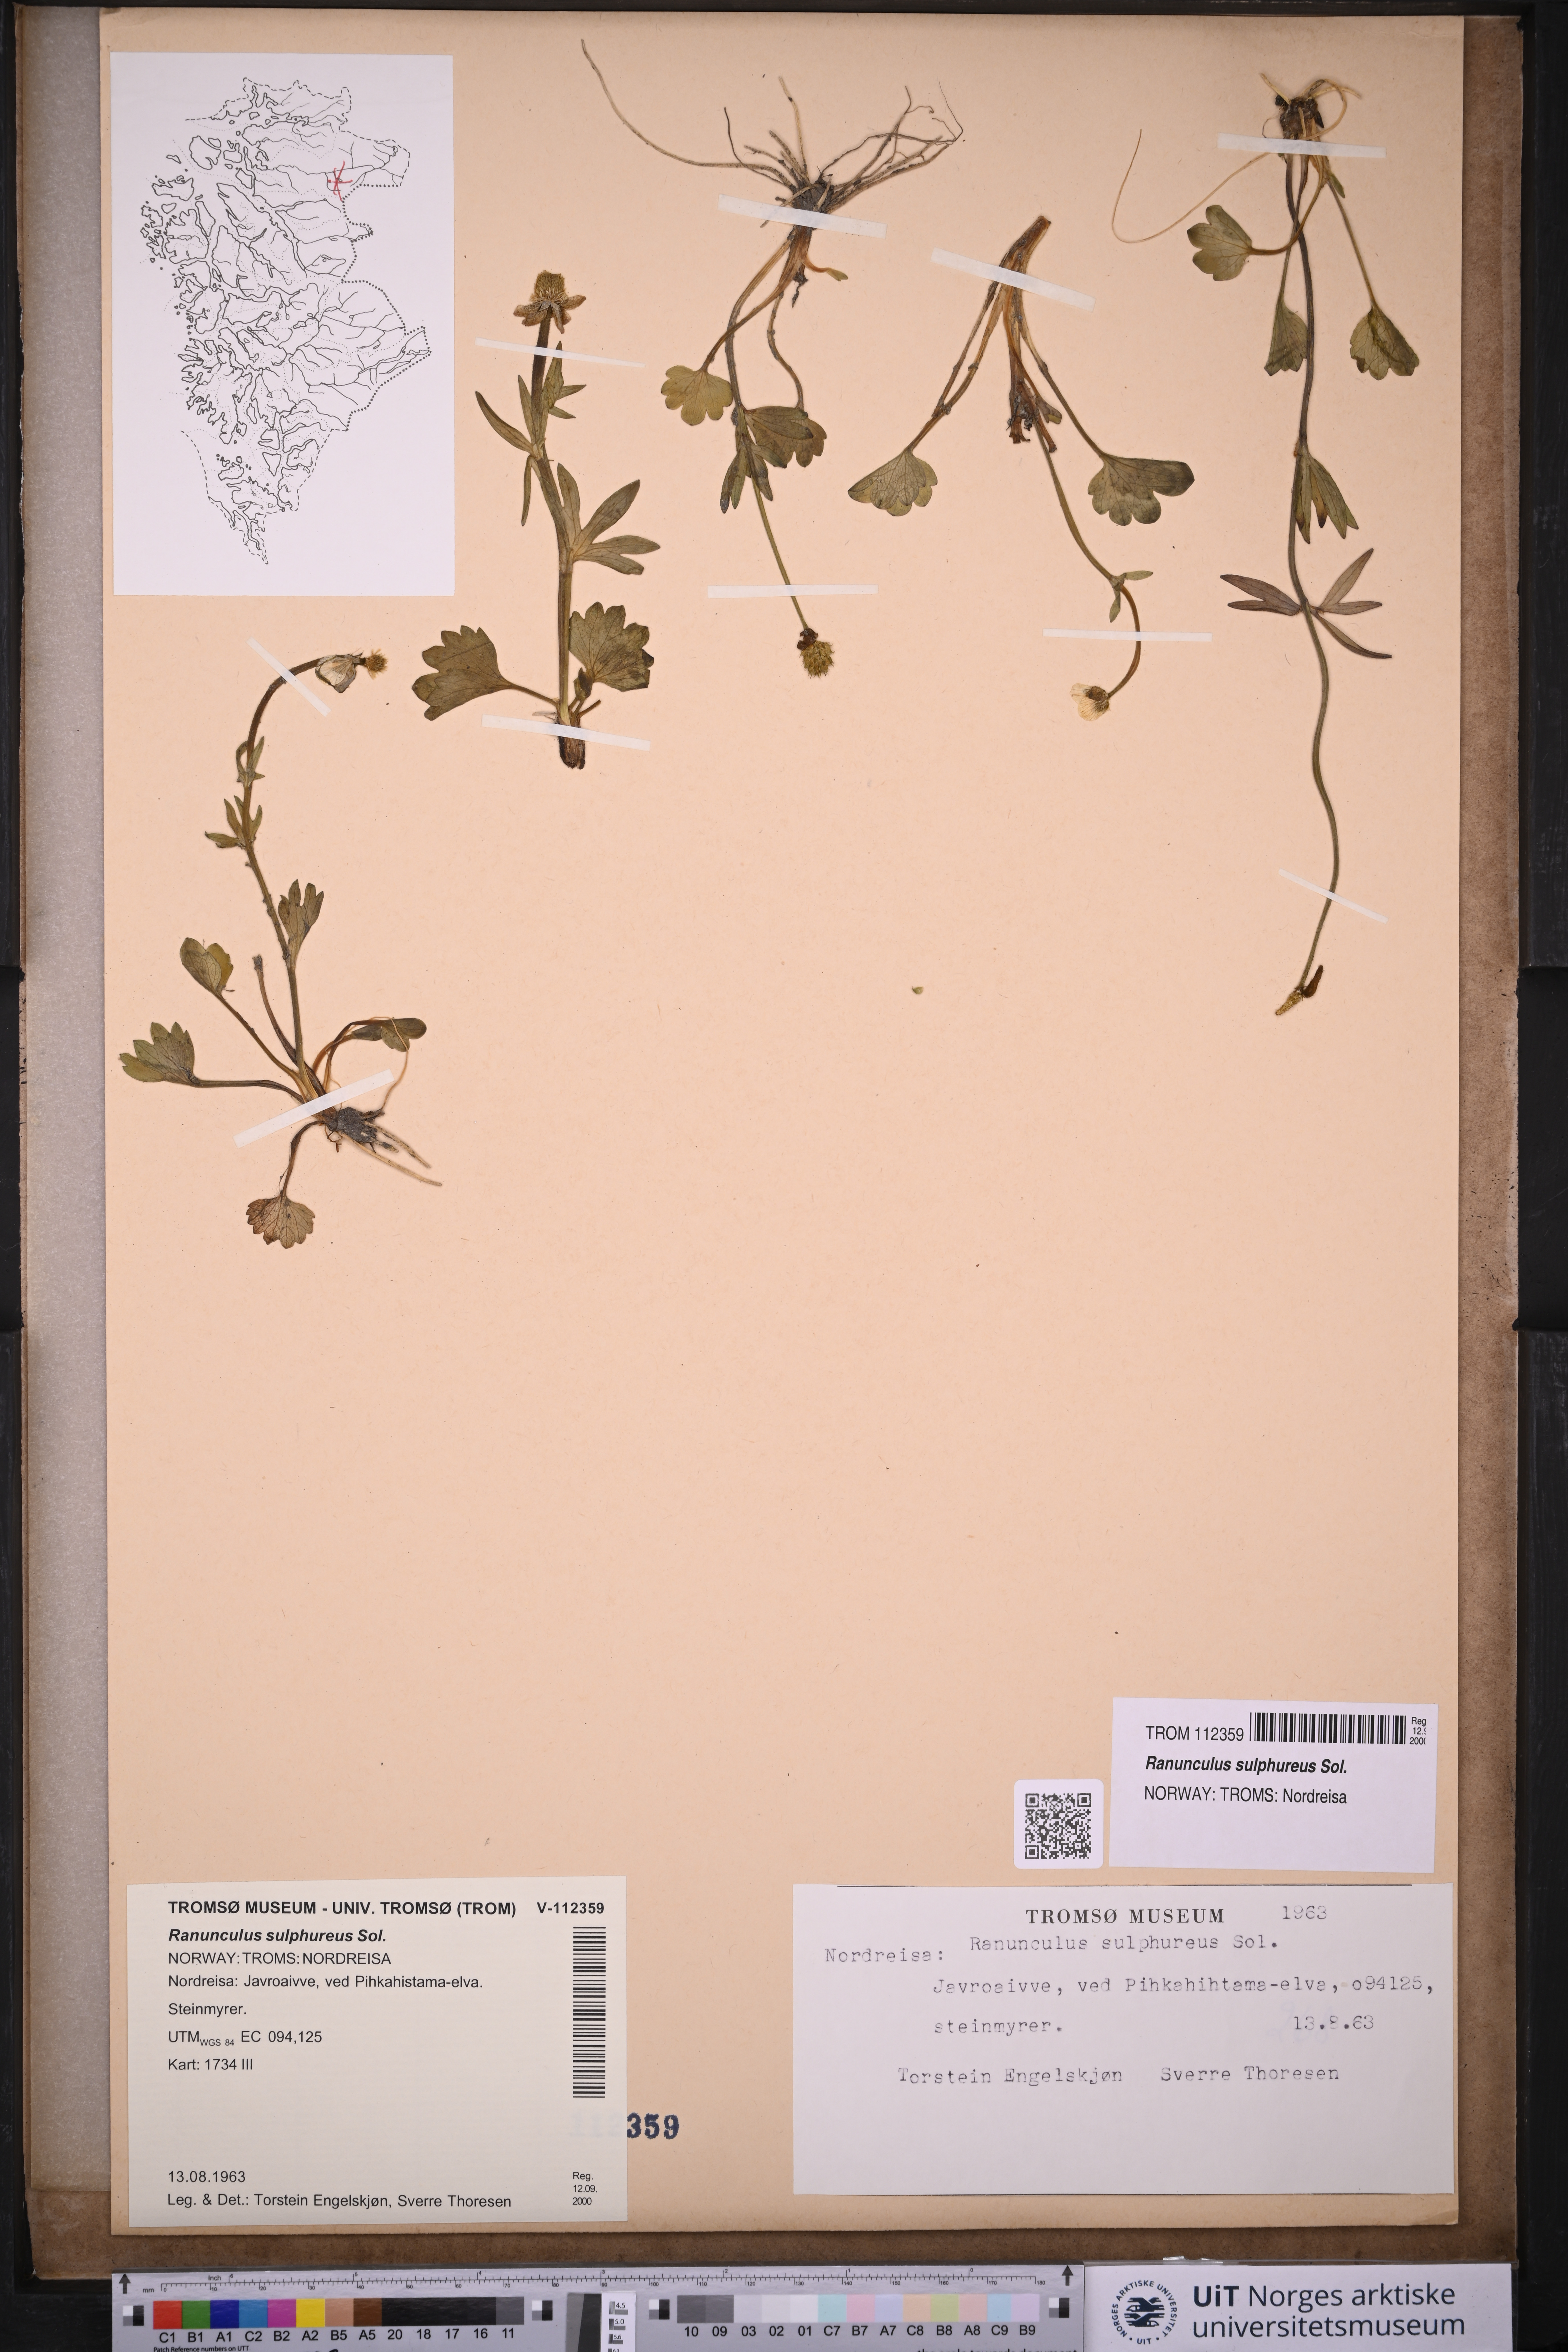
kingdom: Plantae
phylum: Tracheophyta
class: Magnoliopsida
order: Ranunculales
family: Ranunculaceae
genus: Ranunculus
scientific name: Ranunculus sulphureus
